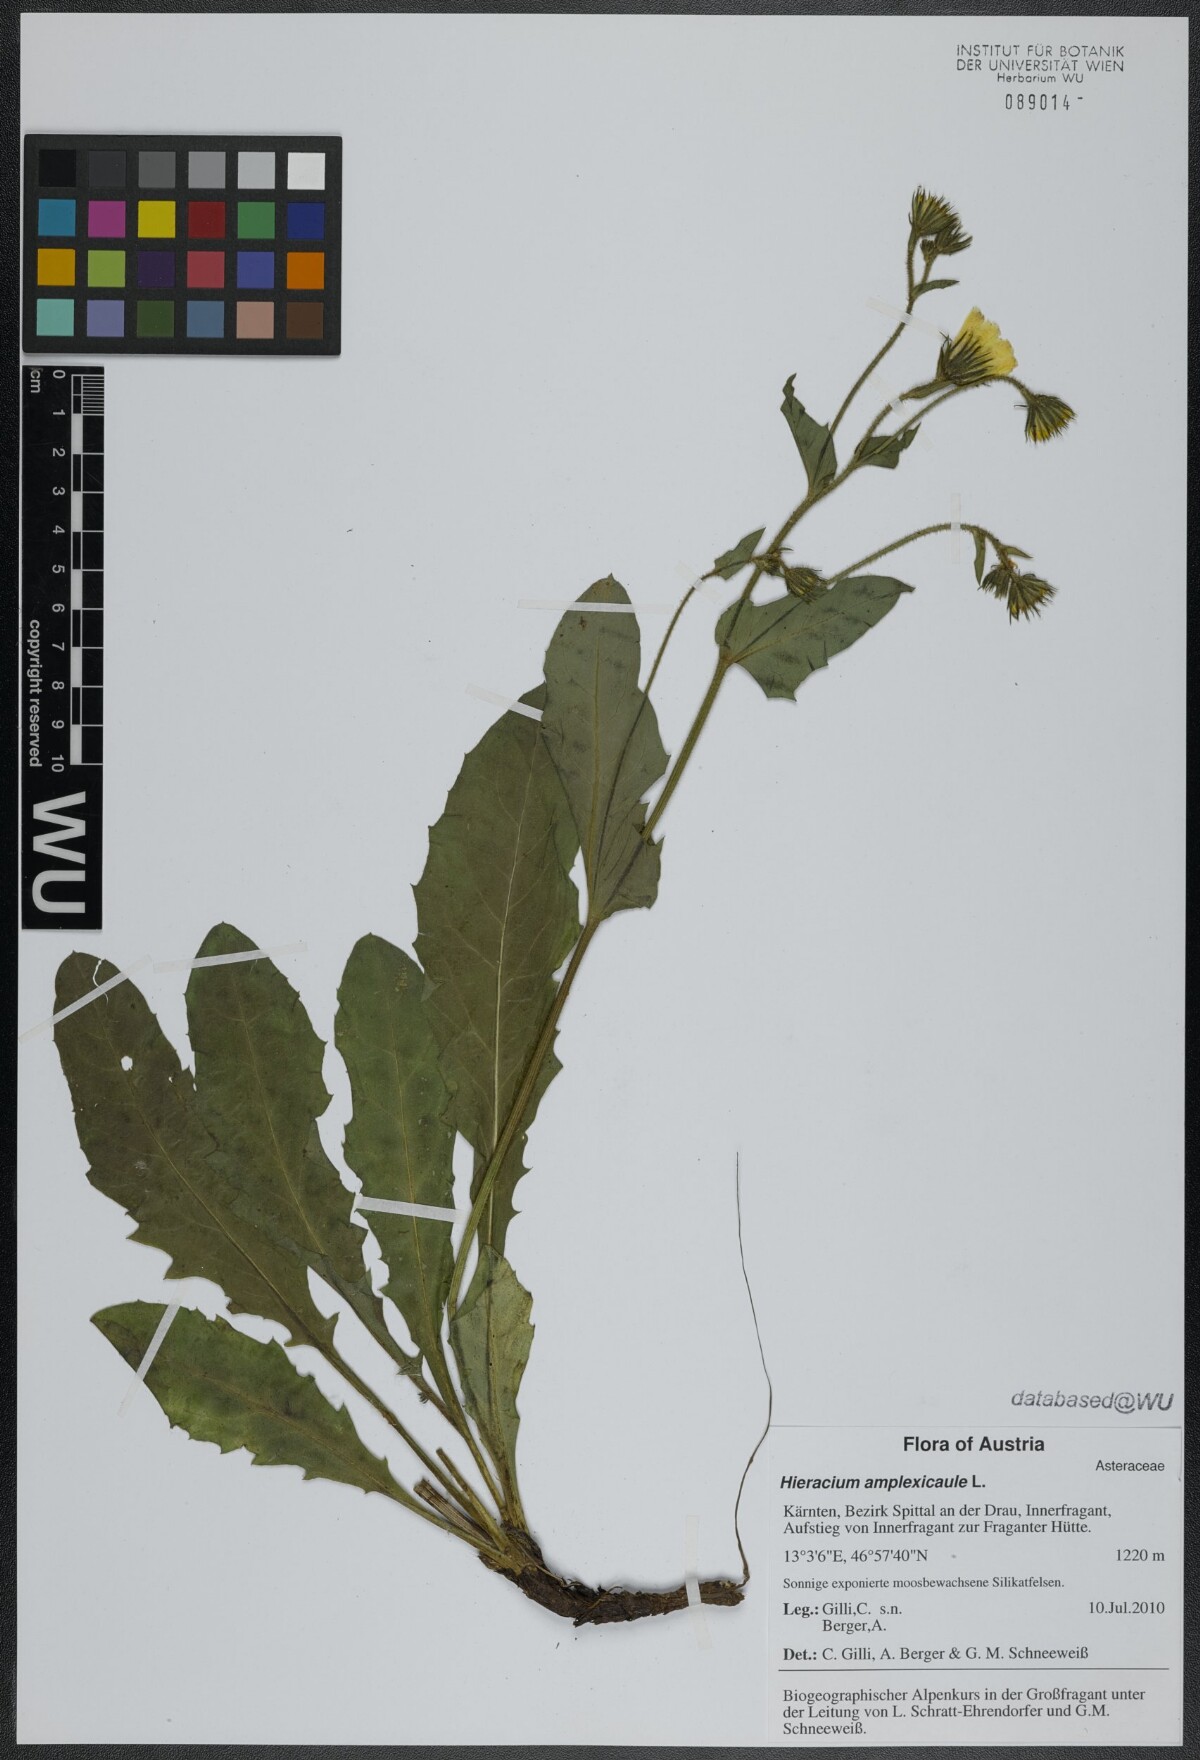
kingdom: Plantae
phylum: Tracheophyta
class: Magnoliopsida
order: Asterales
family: Asteraceae
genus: Hieracium
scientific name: Hieracium amplexicaule
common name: Sticky hawkweed
